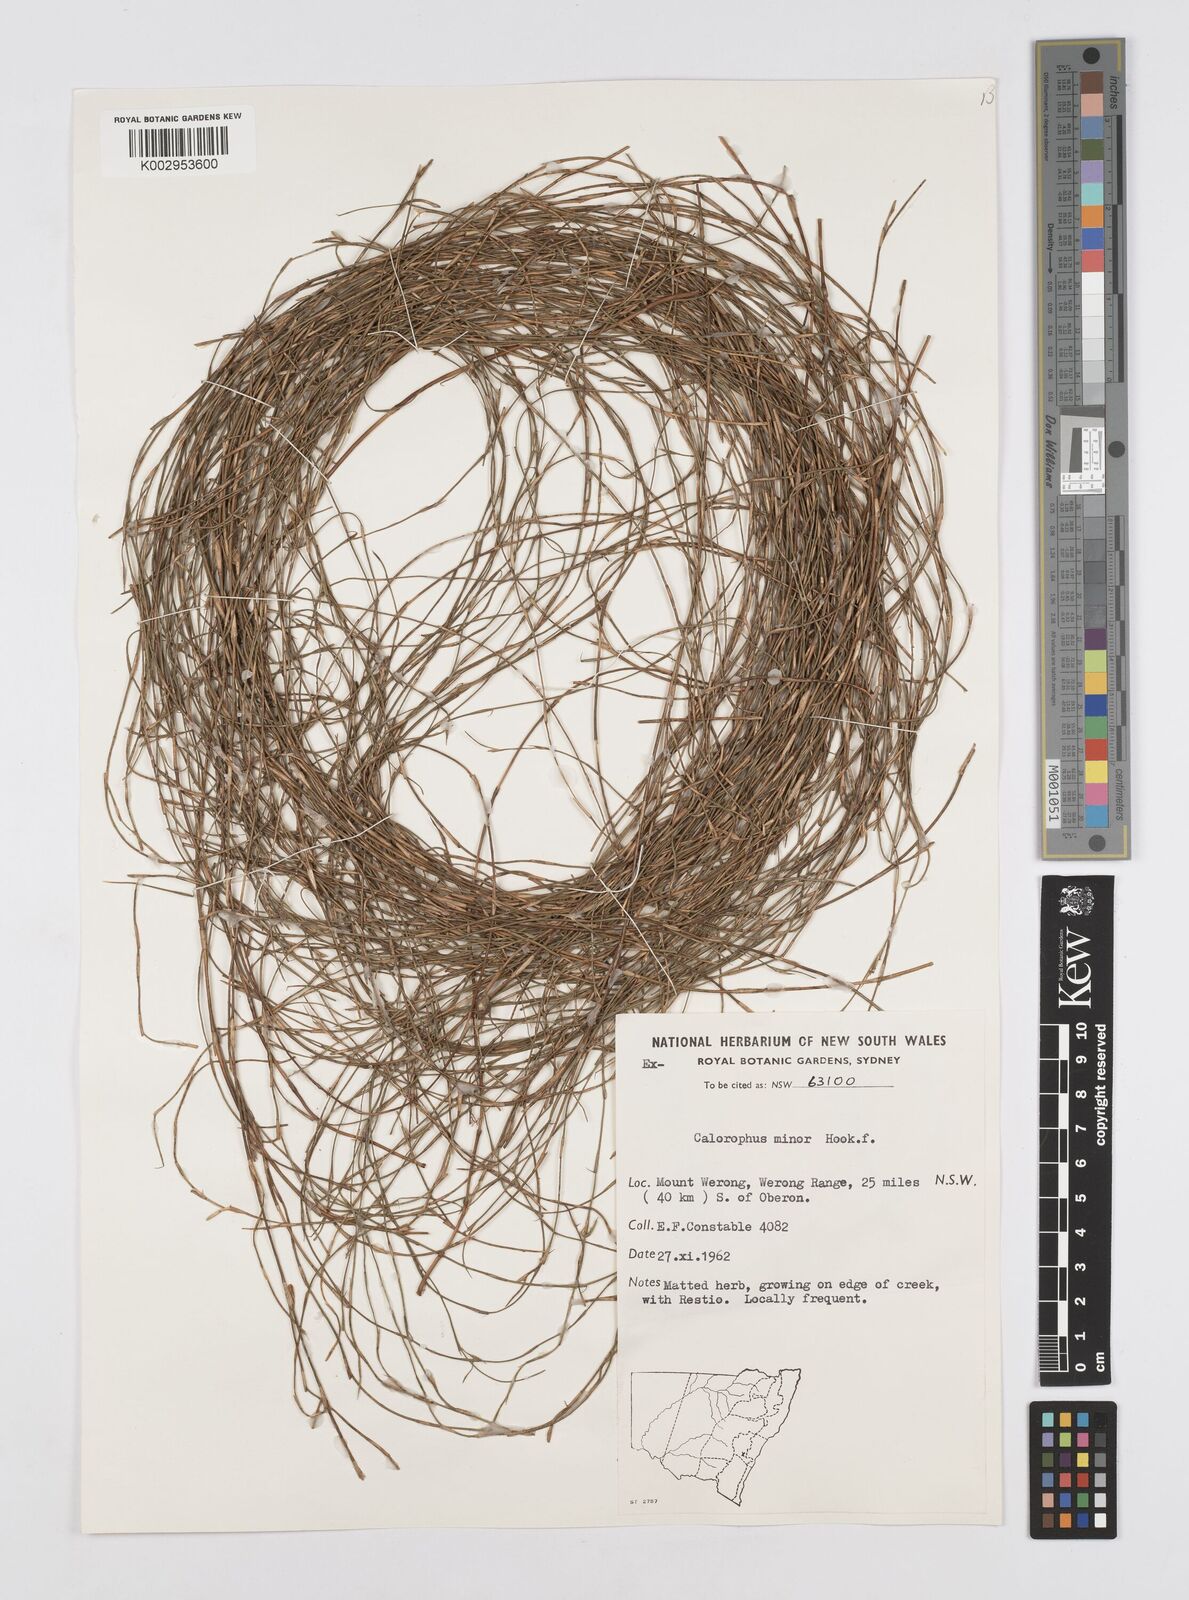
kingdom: Plantae
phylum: Tracheophyta
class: Liliopsida
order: Poales
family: Restionaceae
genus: Empodisma
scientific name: Empodisma minus
